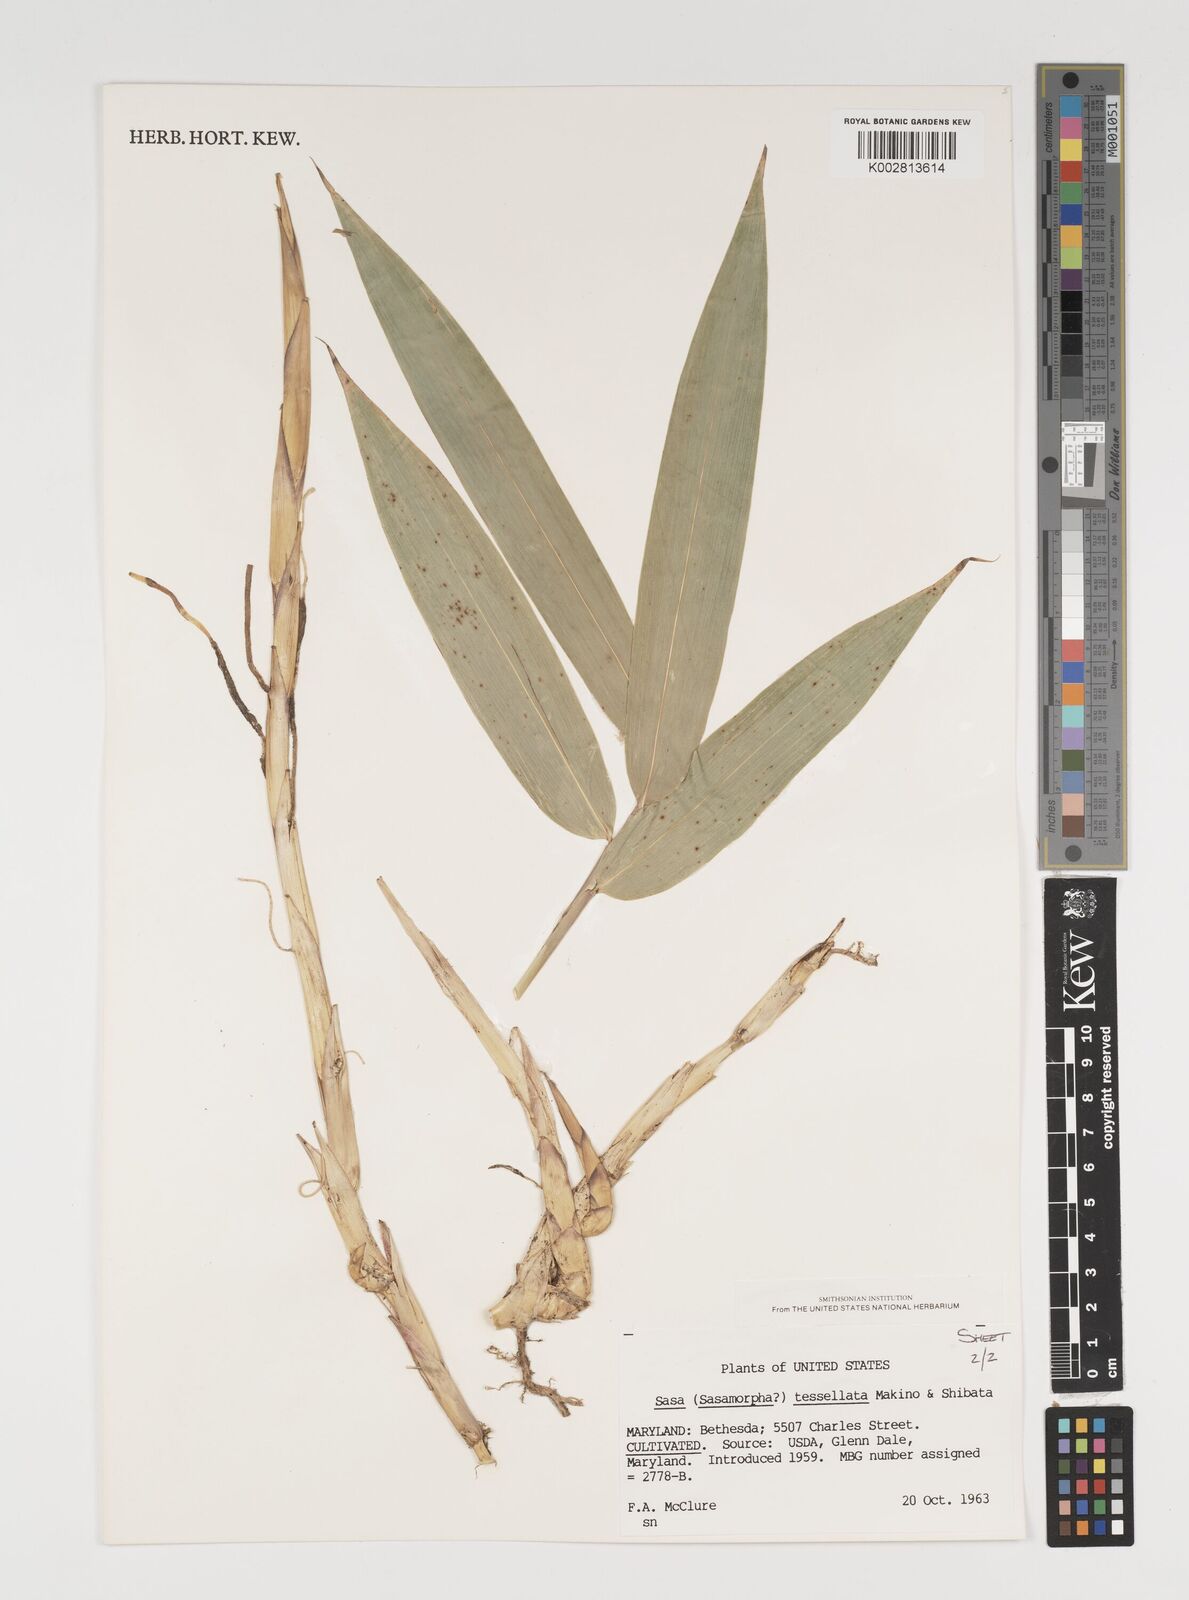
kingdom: Plantae
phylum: Tracheophyta
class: Liliopsida
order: Poales
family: Poaceae
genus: Indocalamus
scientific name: Indocalamus tessellatus
